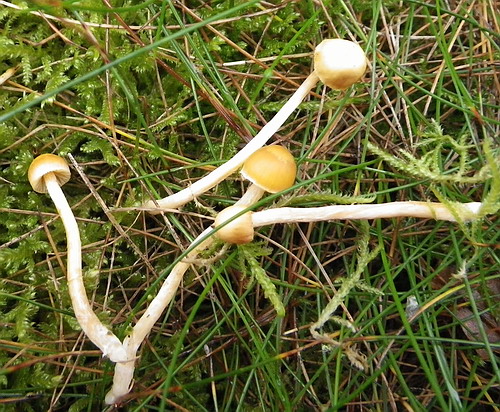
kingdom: Fungi
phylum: Basidiomycota
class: Agaricomycetes
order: Agaricales
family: Hymenogastraceae
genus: Galerina
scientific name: Galerina mniophila
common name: olivengul hjelmhat
